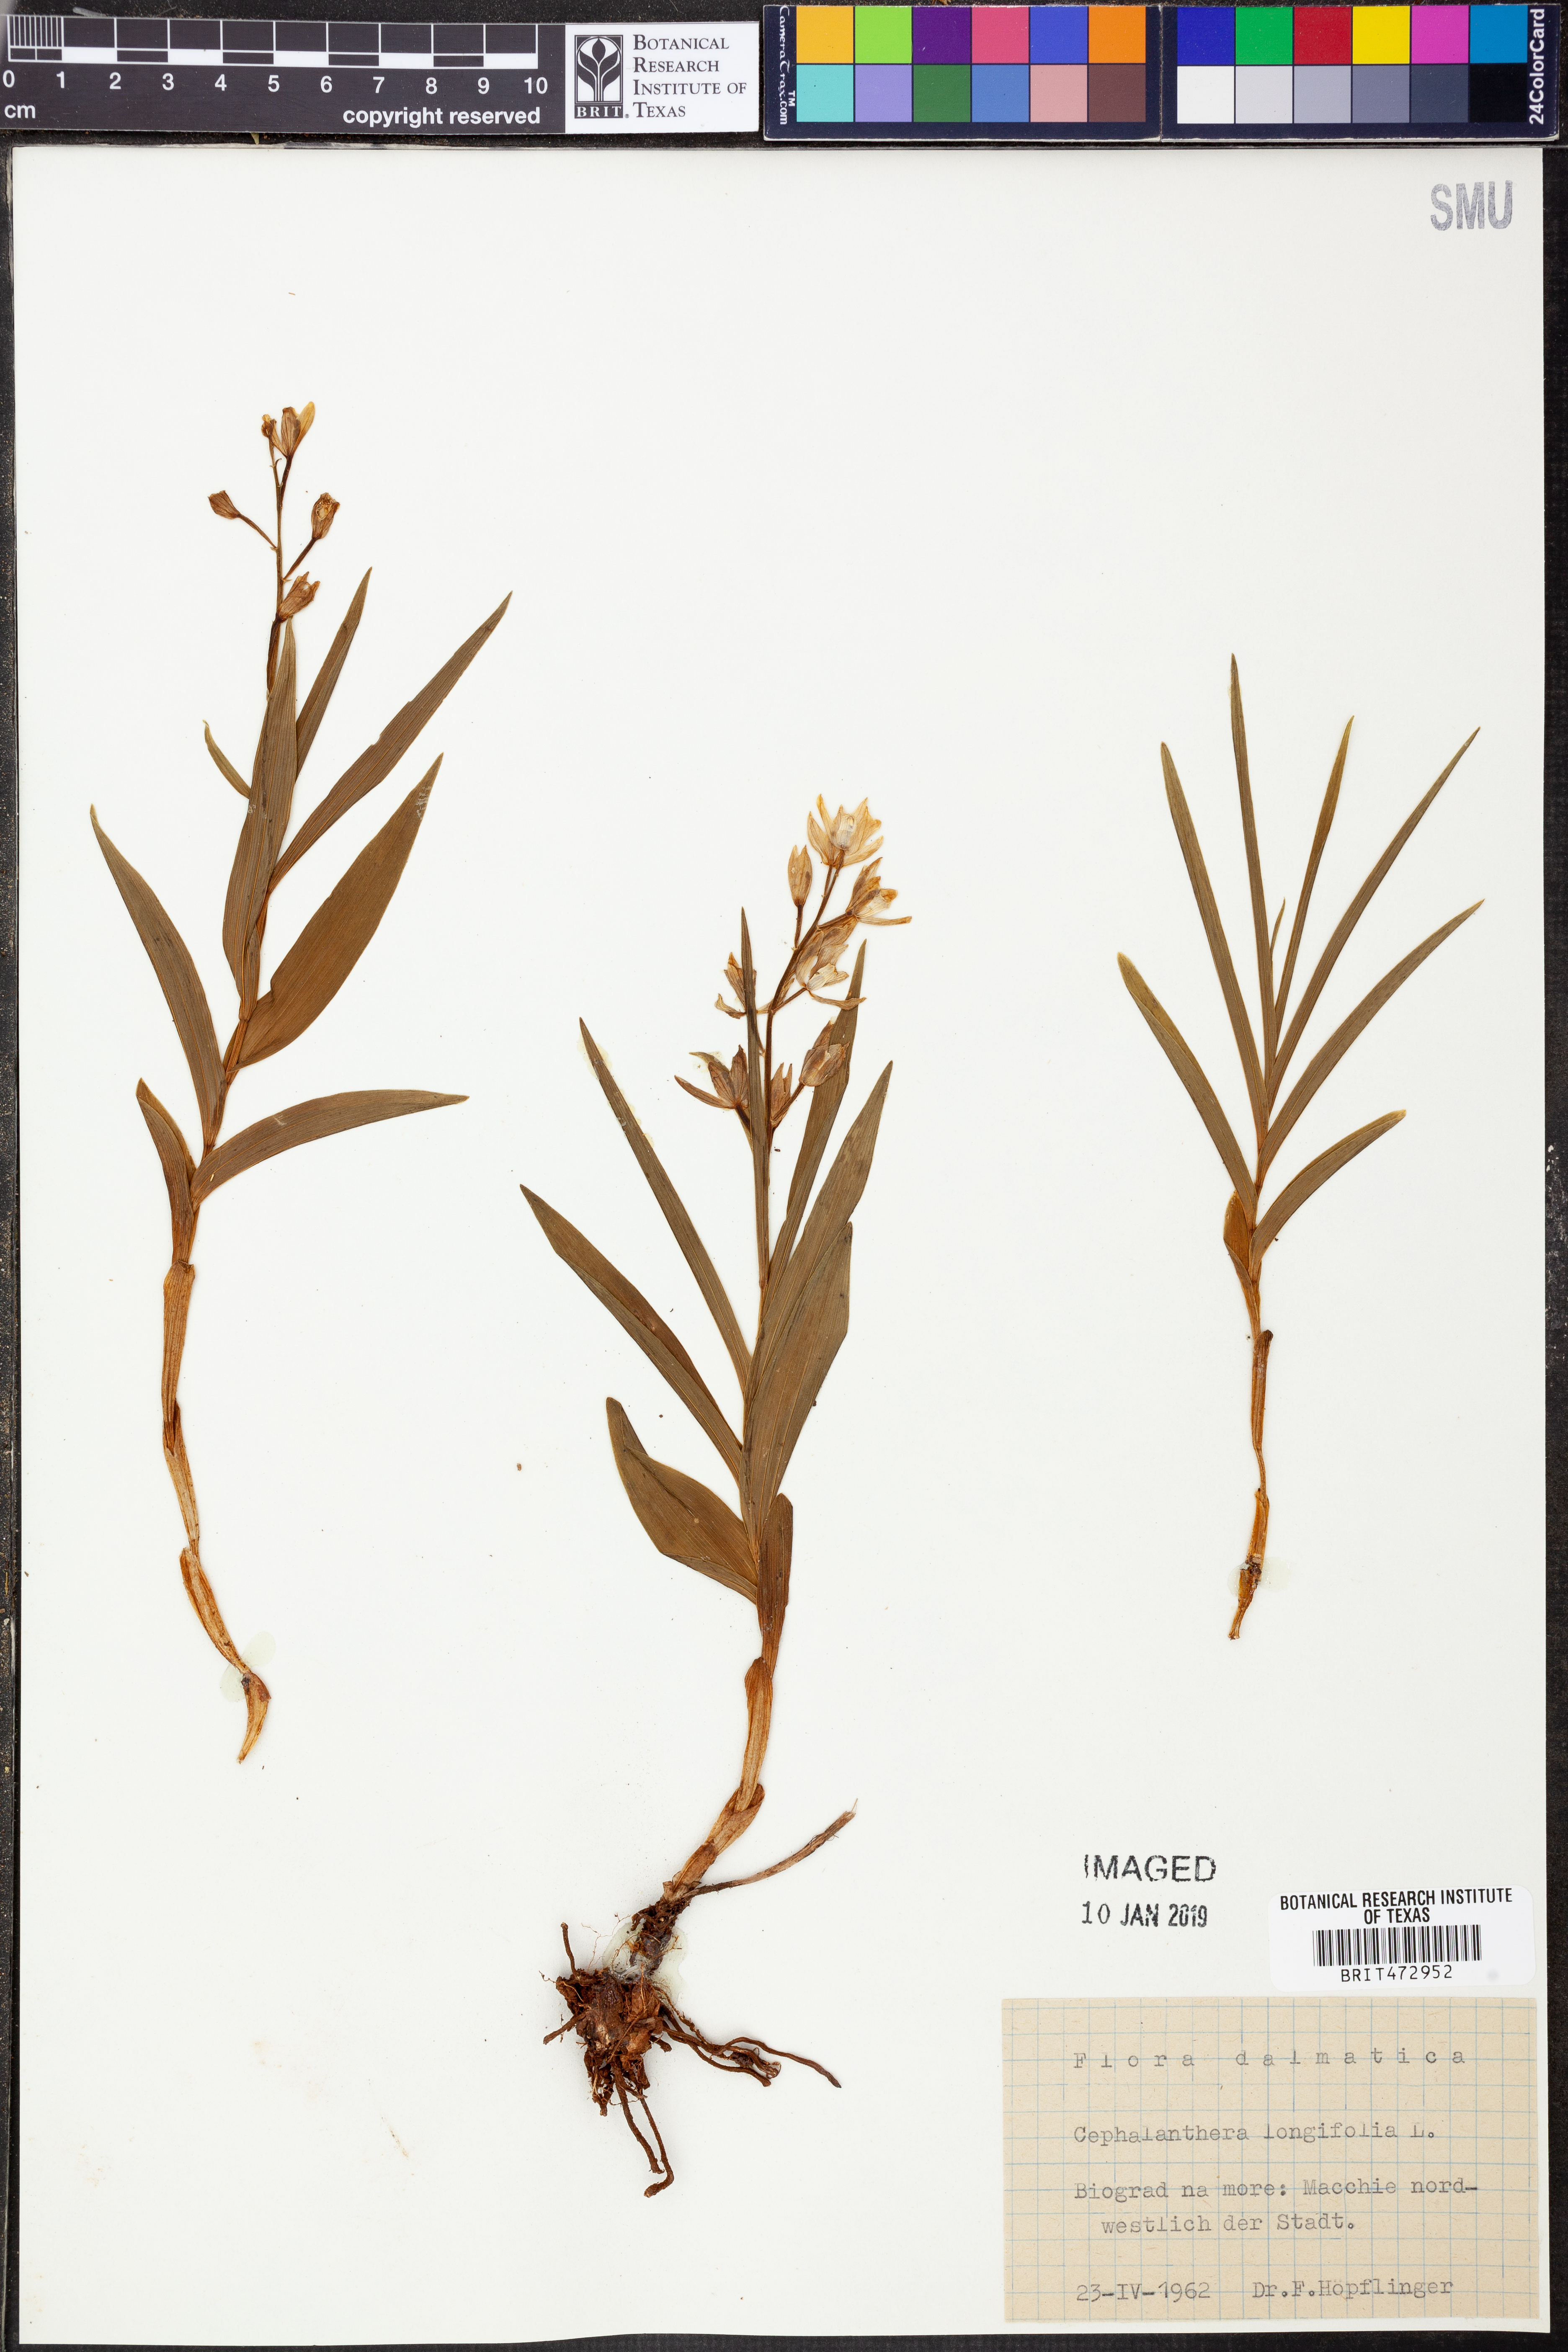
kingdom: Plantae
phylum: Tracheophyta
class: Liliopsida
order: Asparagales
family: Orchidaceae
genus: Cephalanthera
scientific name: Cephalanthera longifolia
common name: Narrow-leaved helleborine
